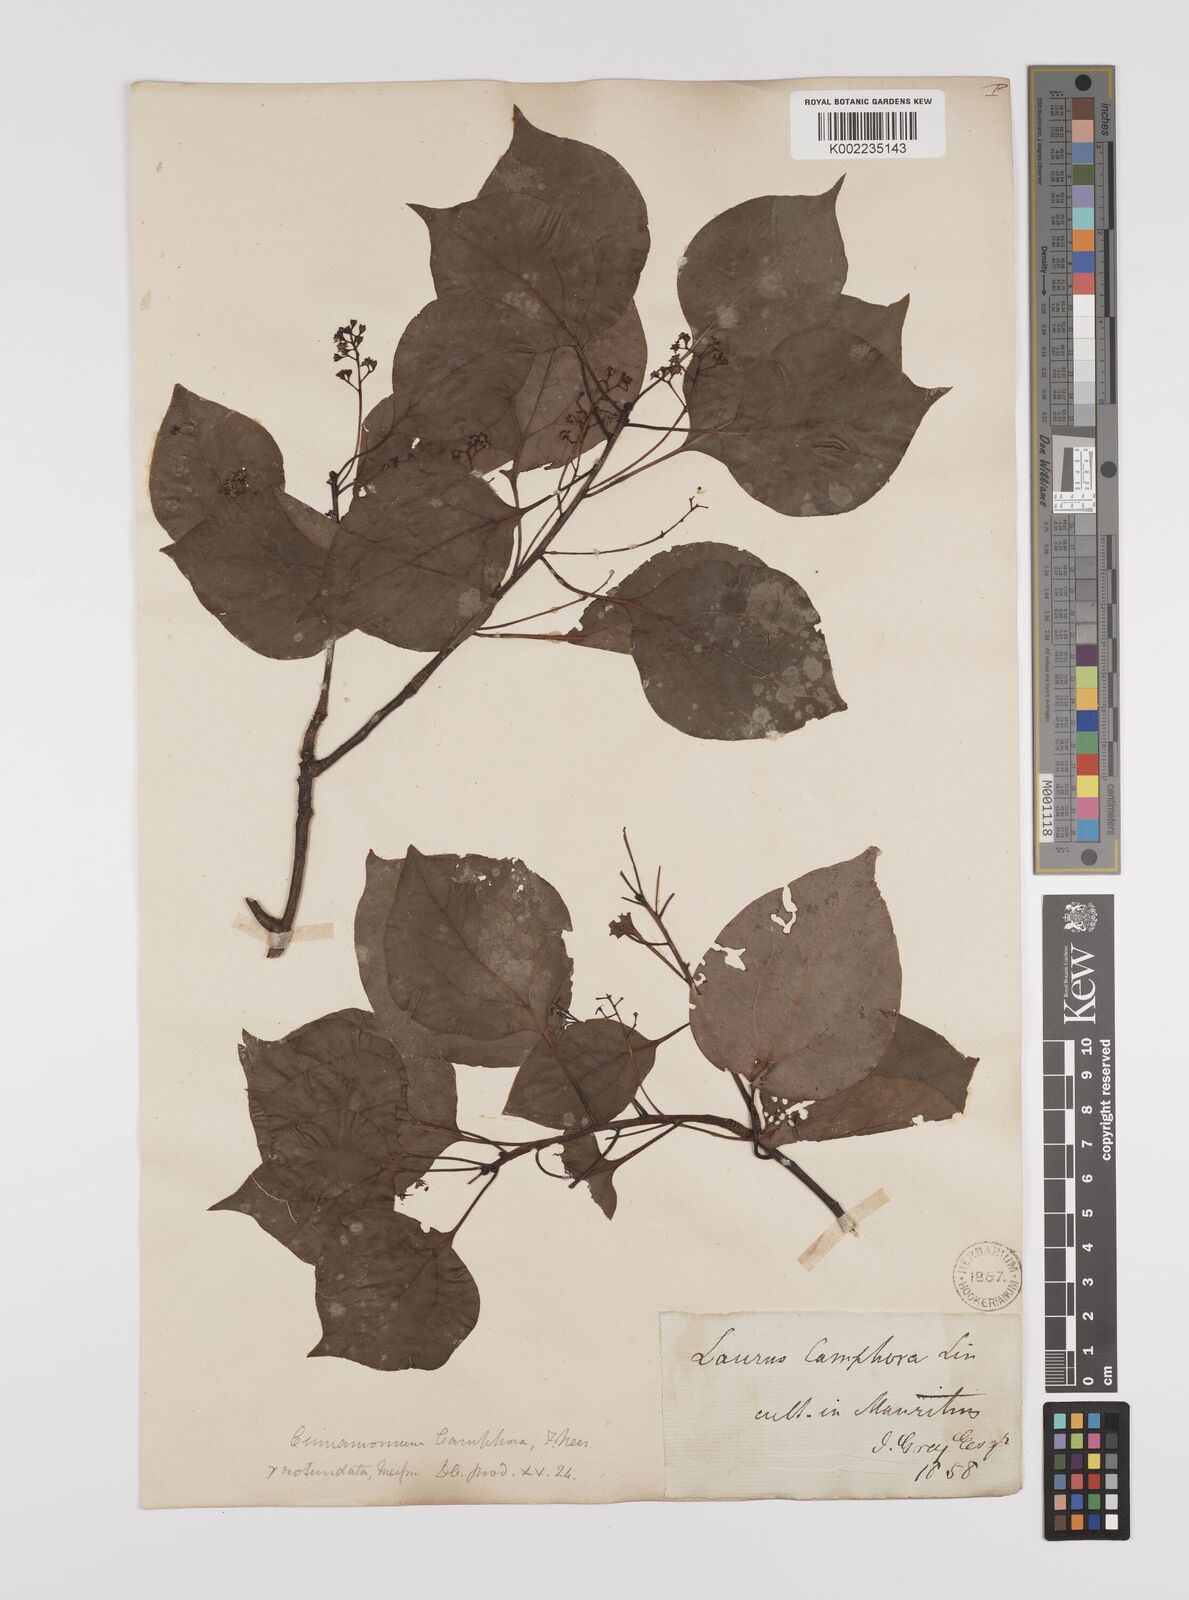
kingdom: Plantae
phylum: Tracheophyta
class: Magnoliopsida
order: Laurales
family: Lauraceae
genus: Cinnamomum
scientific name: Cinnamomum camphora
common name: Camphortree
